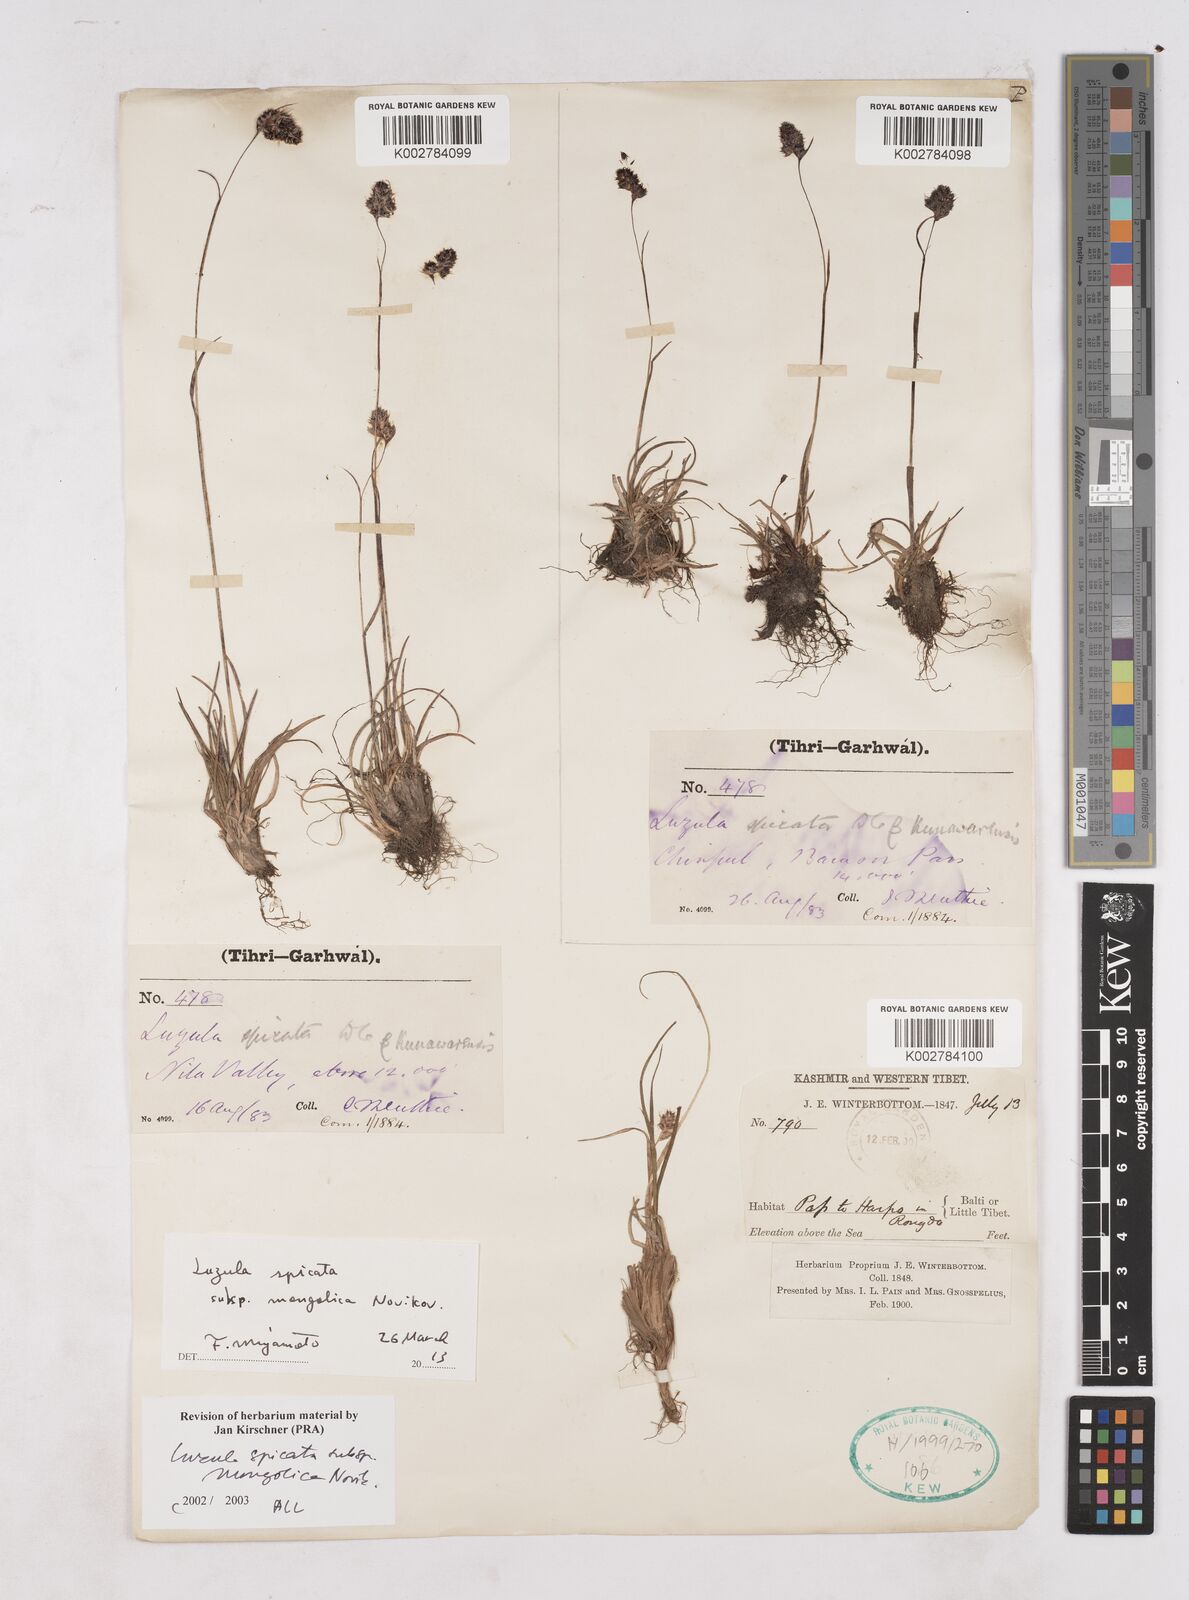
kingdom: Plantae
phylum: Tracheophyta
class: Liliopsida
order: Poales
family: Juncaceae
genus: Luzula
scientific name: Luzula spicata
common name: Spiked wood-rush
